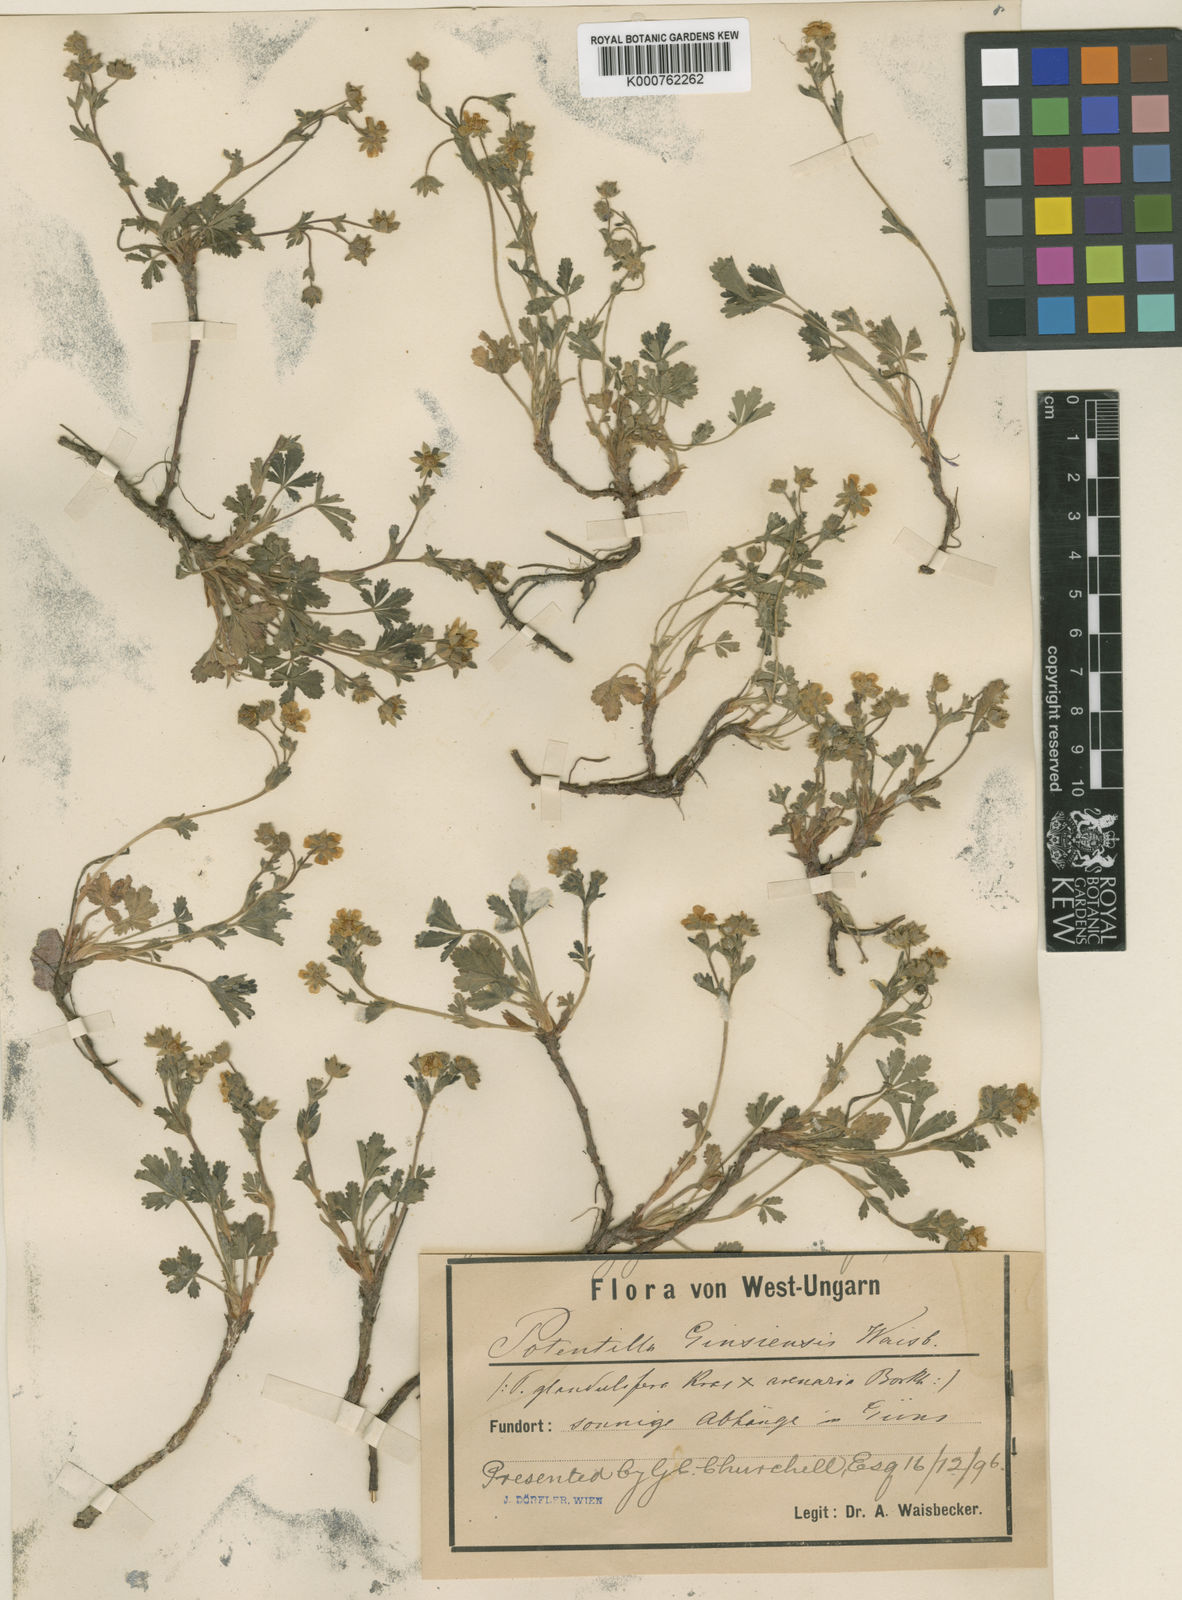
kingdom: Plantae
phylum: Tracheophyta
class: Magnoliopsida
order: Rosales
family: Rosaceae
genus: Potentilla
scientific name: Potentilla pusilla
